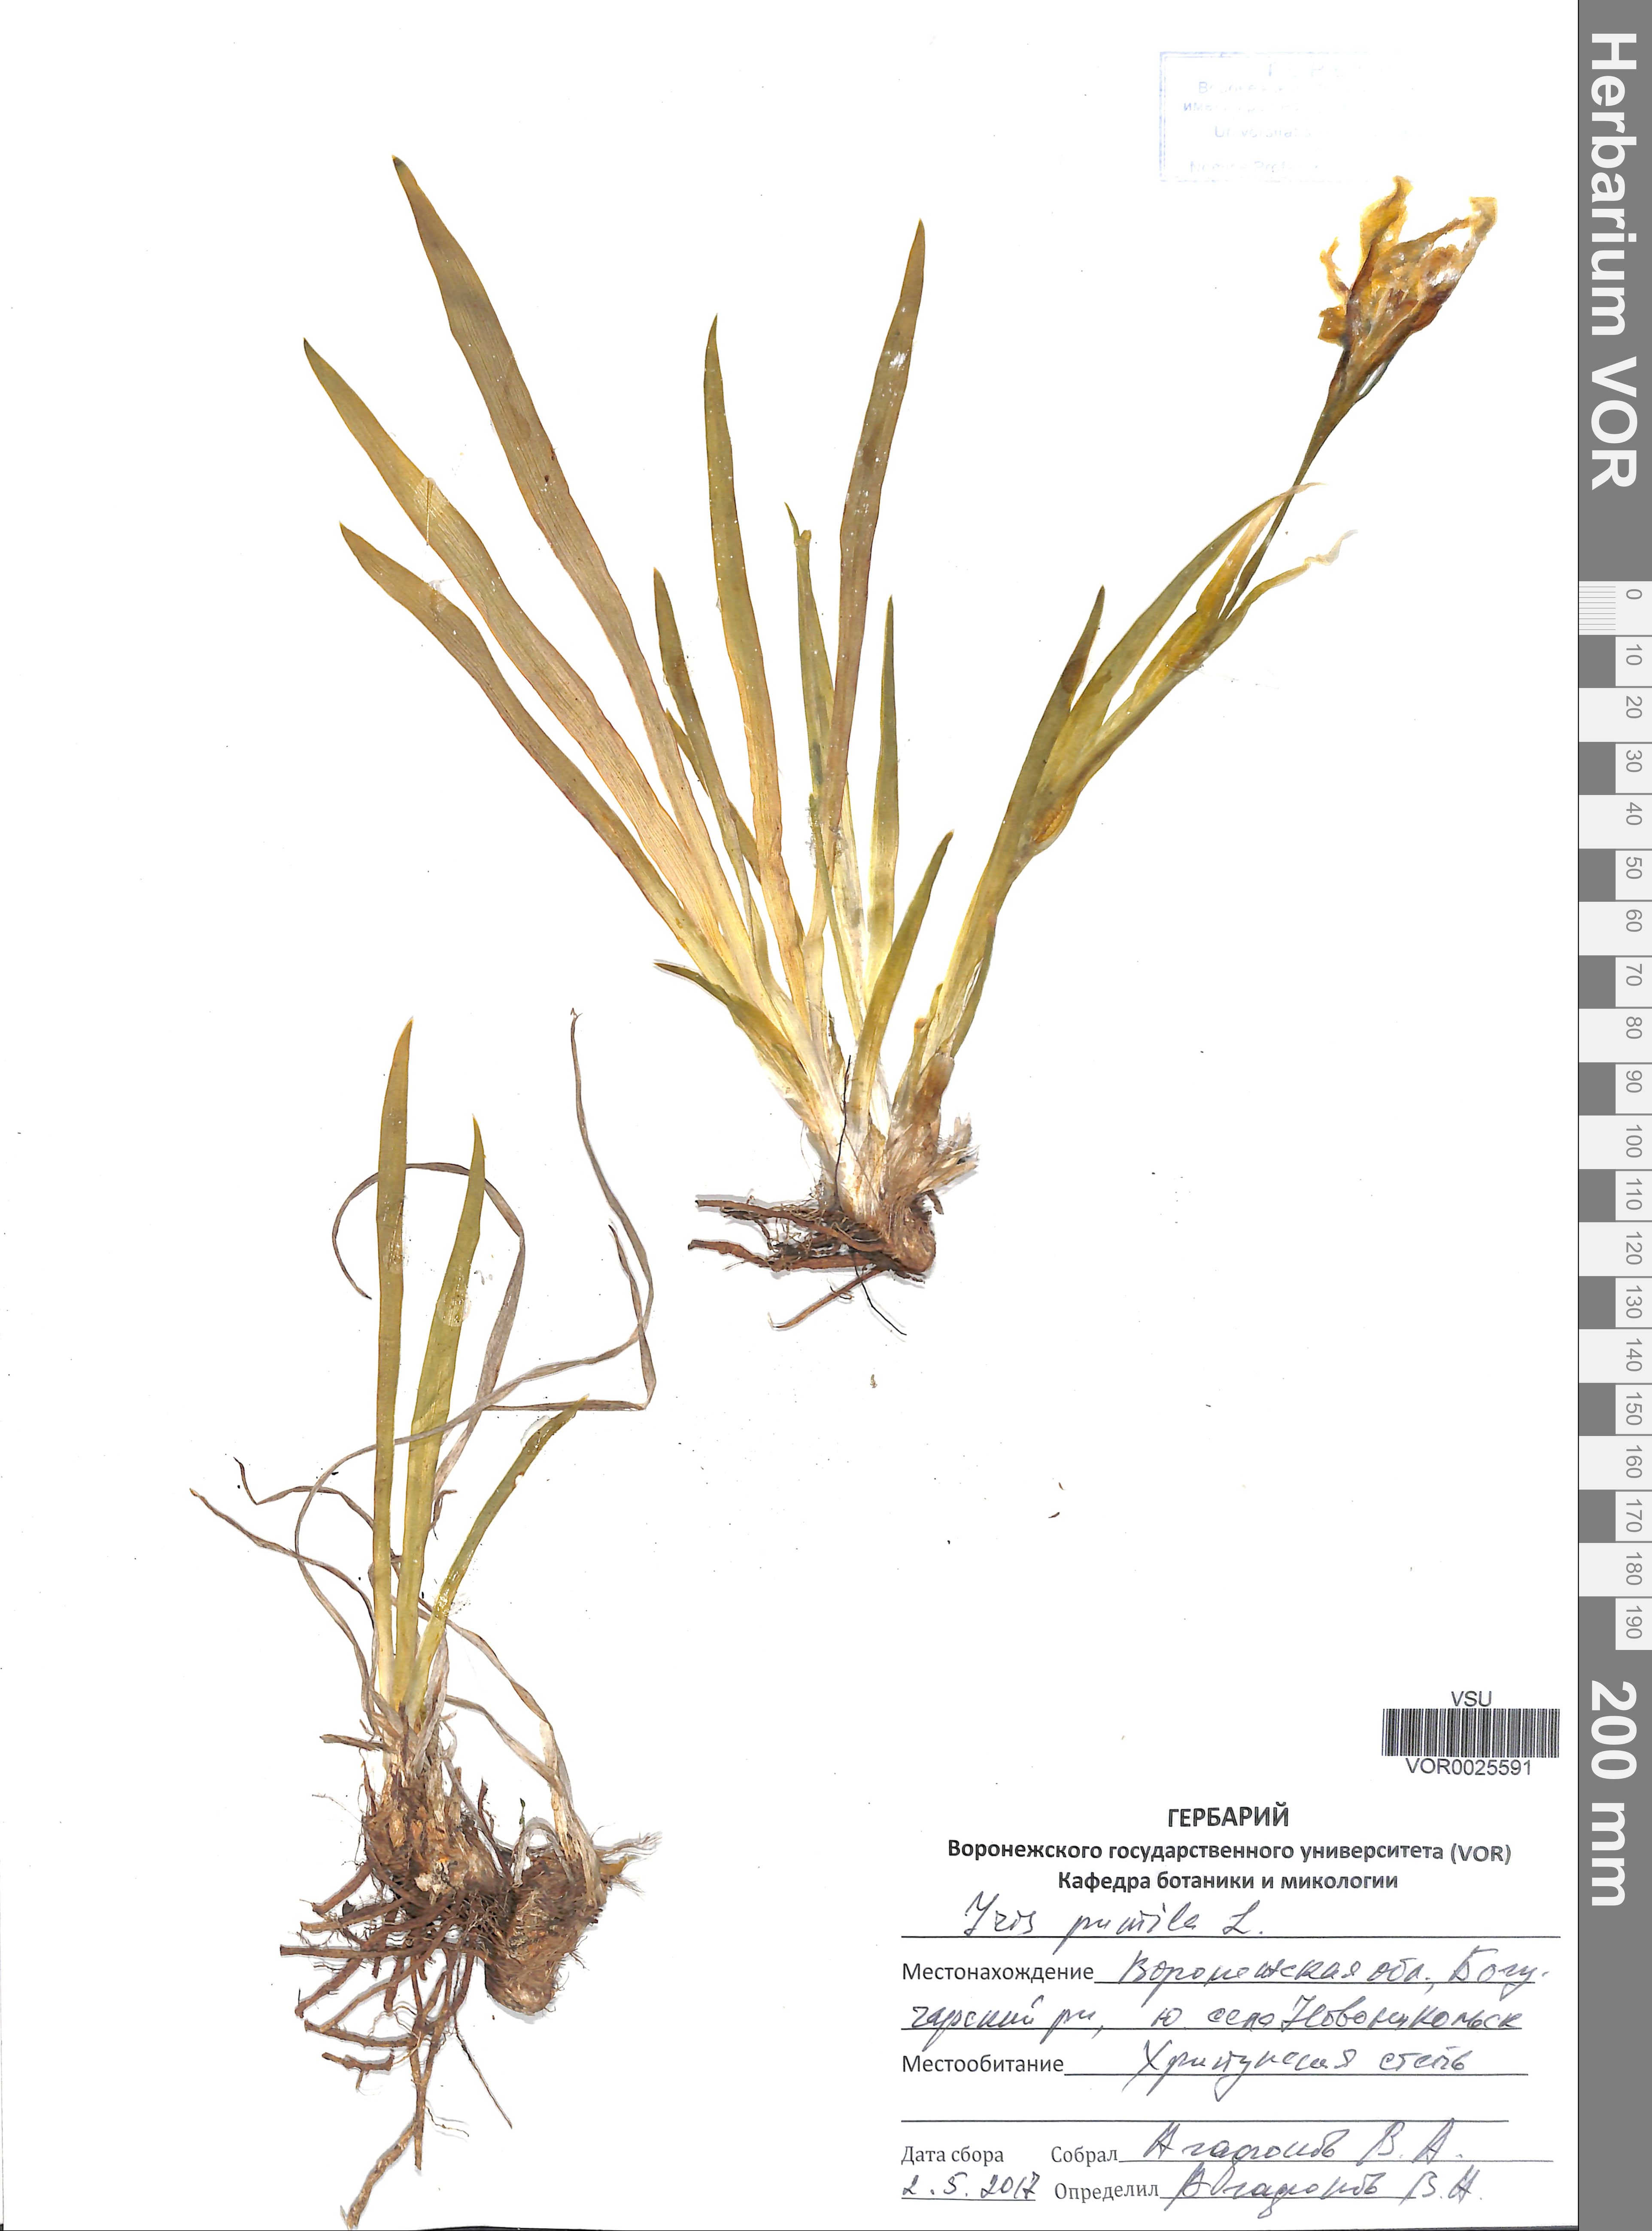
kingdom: Plantae
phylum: Tracheophyta
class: Liliopsida
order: Asparagales
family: Iridaceae
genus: Iris
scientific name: Iris pumila
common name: Dwarf iris
